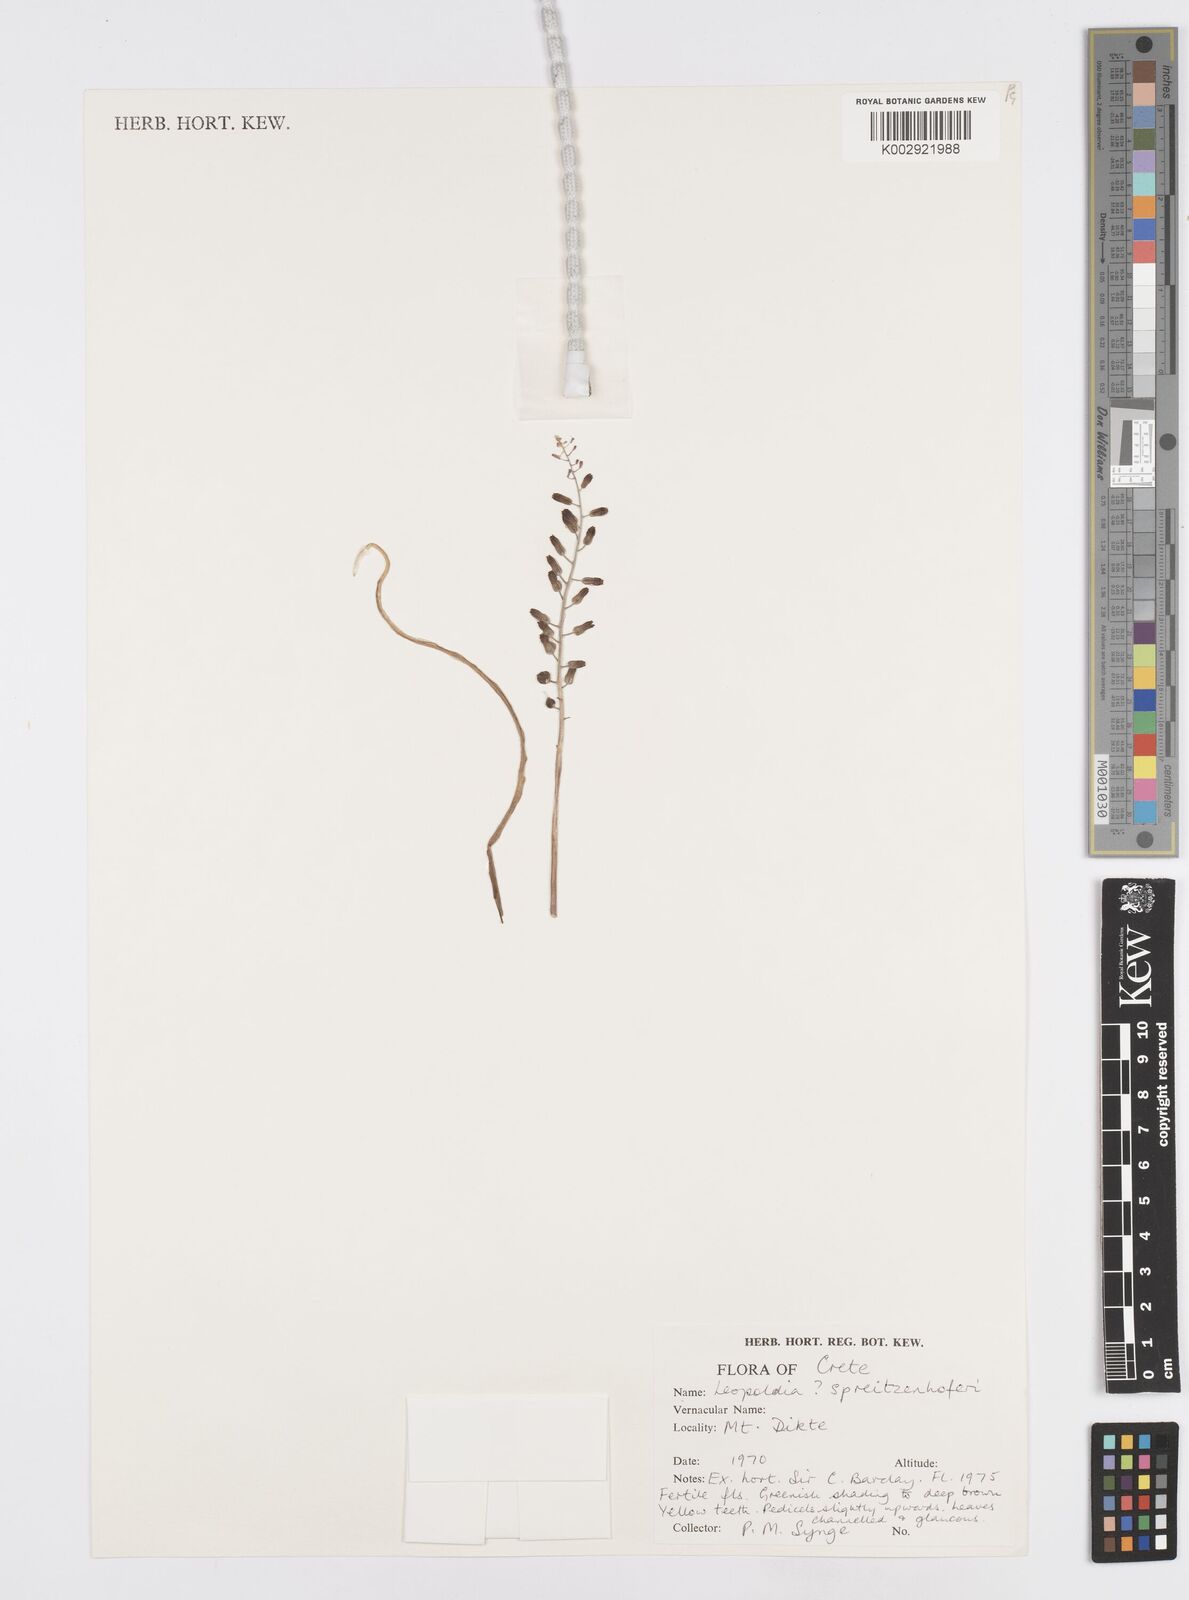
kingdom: Plantae
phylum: Tracheophyta
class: Liliopsida
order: Asparagales
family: Asparagaceae
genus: Muscari
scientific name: Muscari spreitzenhoferi
